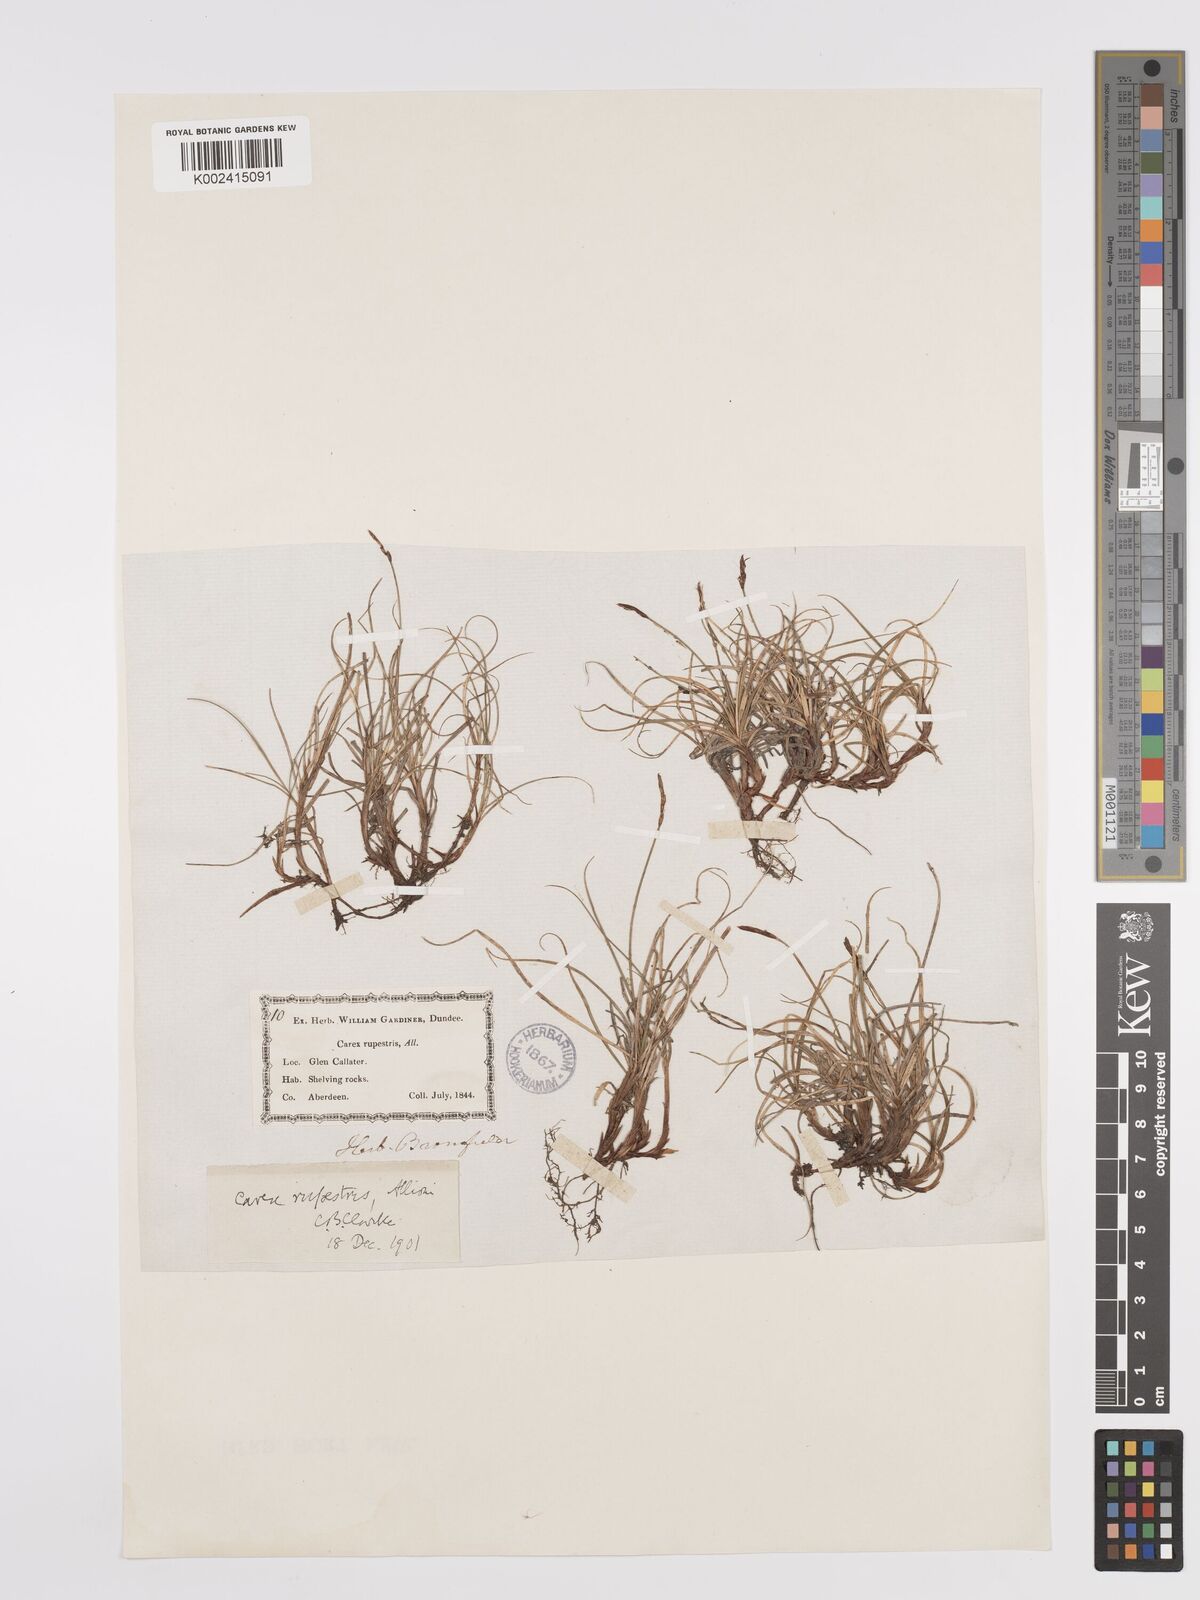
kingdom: Plantae
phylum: Tracheophyta
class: Liliopsida
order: Poales
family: Cyperaceae
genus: Carex
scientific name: Carex rupestris
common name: Rock sedge
